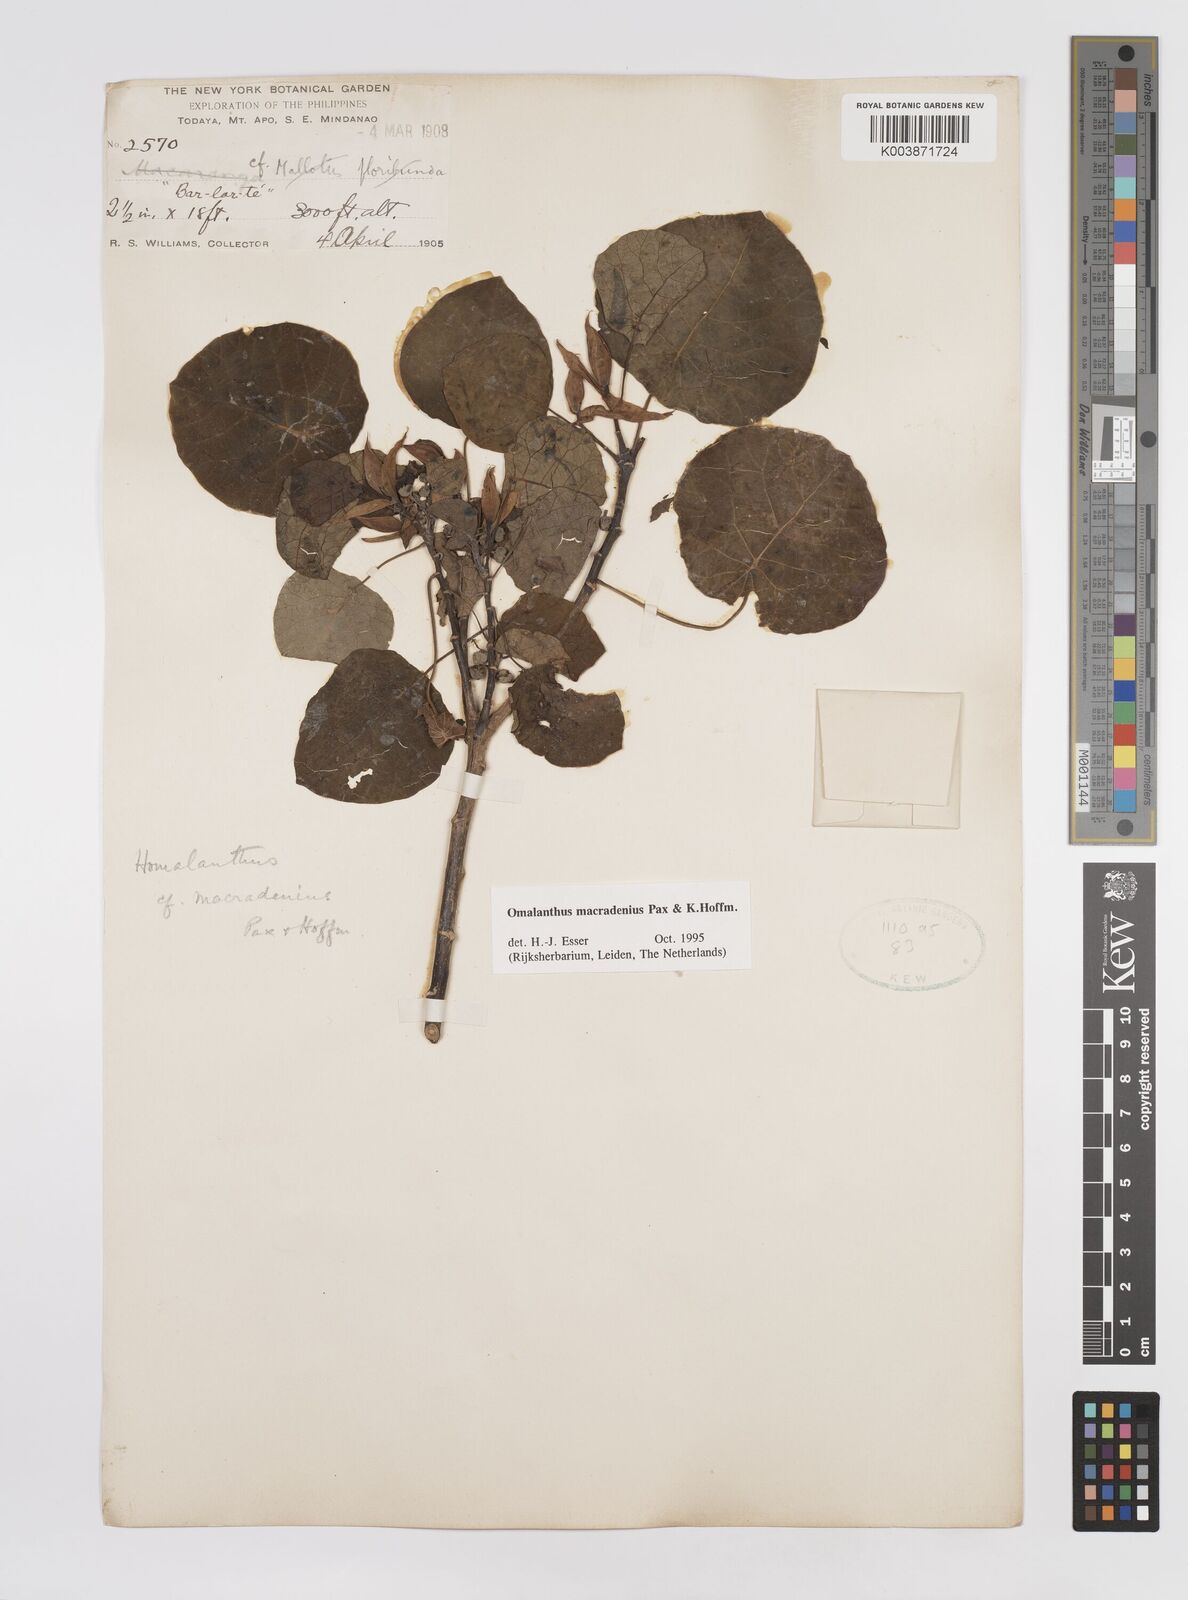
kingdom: Plantae
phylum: Tracheophyta
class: Magnoliopsida
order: Malpighiales
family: Euphorbiaceae
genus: Homalanthus
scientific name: Homalanthus macradenius
